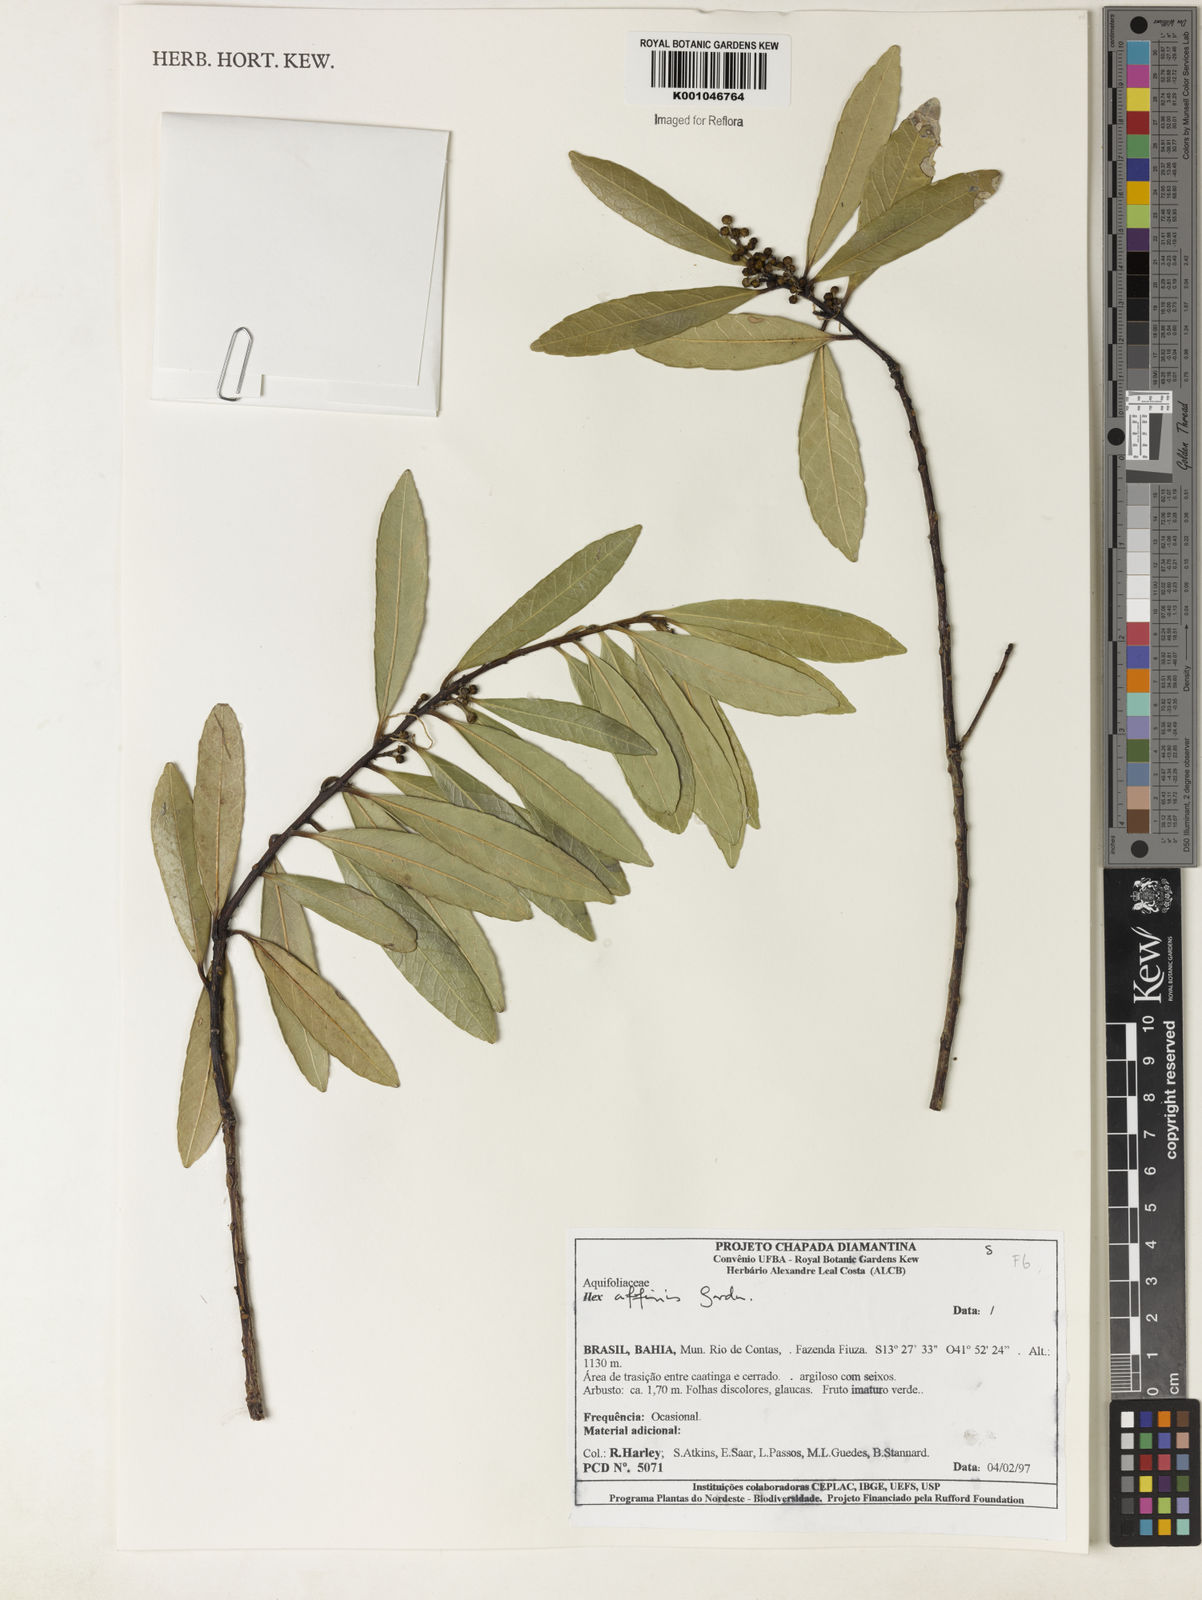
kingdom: Plantae
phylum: Tracheophyta
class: Magnoliopsida
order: Aquifoliales
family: Aquifoliaceae
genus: Ilex
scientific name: Ilex affinis
